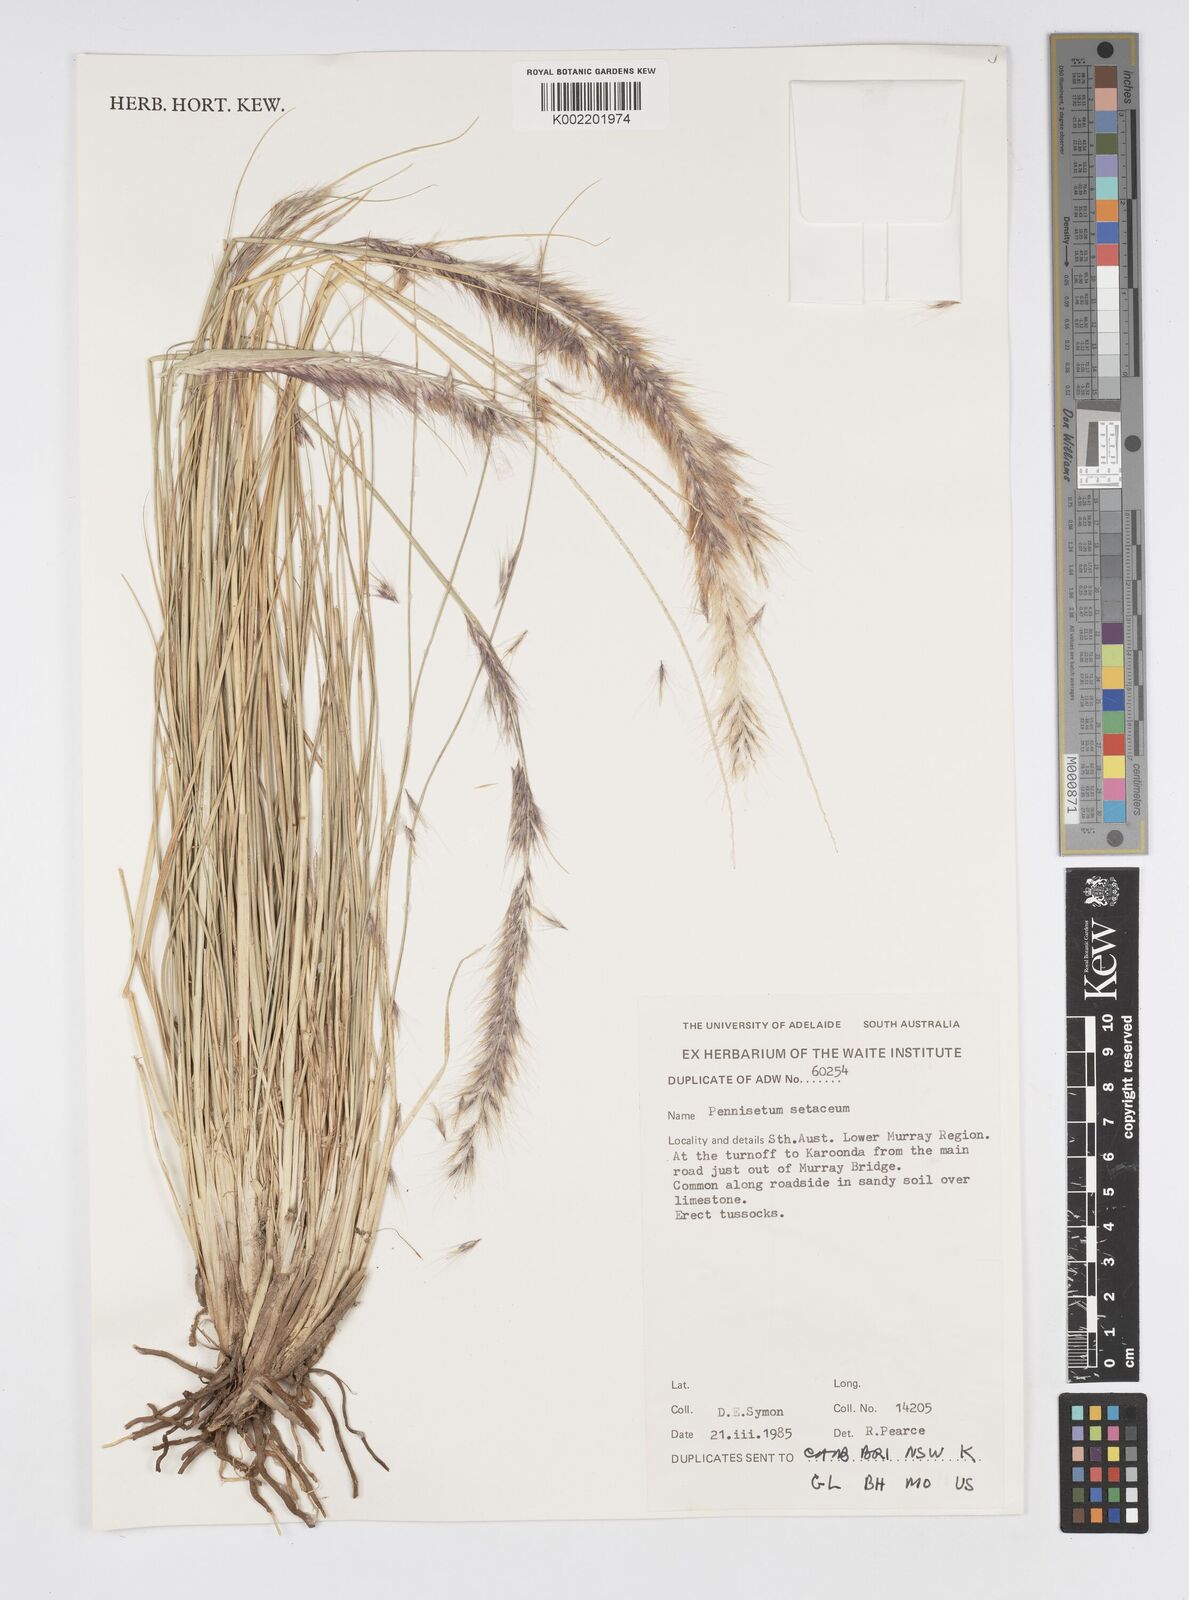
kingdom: Plantae
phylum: Tracheophyta
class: Liliopsida
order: Poales
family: Poaceae
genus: Cenchrus
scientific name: Cenchrus setaceus
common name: Crimson fountaingrass
